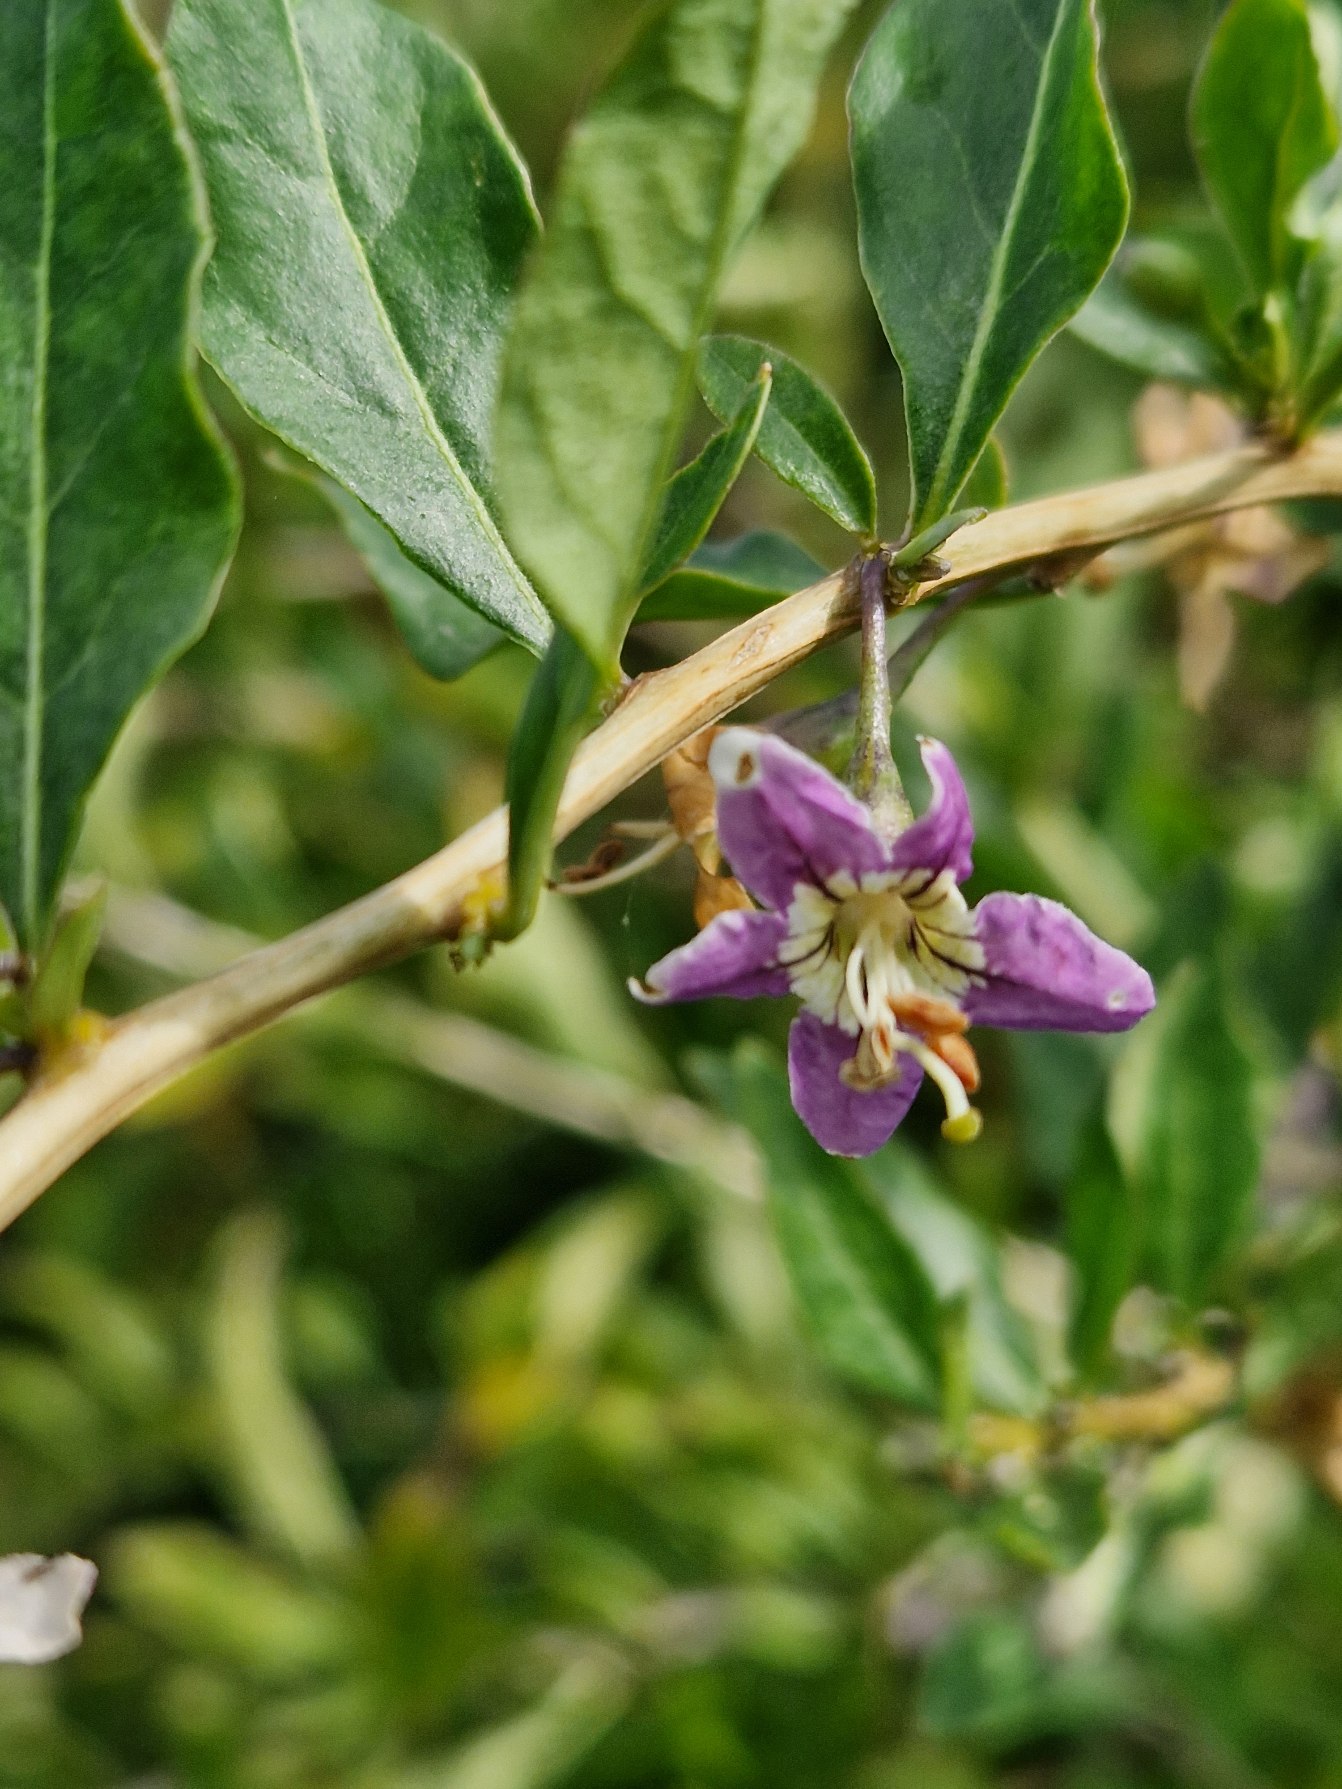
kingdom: Plantae
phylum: Tracheophyta
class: Magnoliopsida
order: Solanales
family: Solanaceae
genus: Lycium
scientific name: Lycium barbarum
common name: Bukketorn
